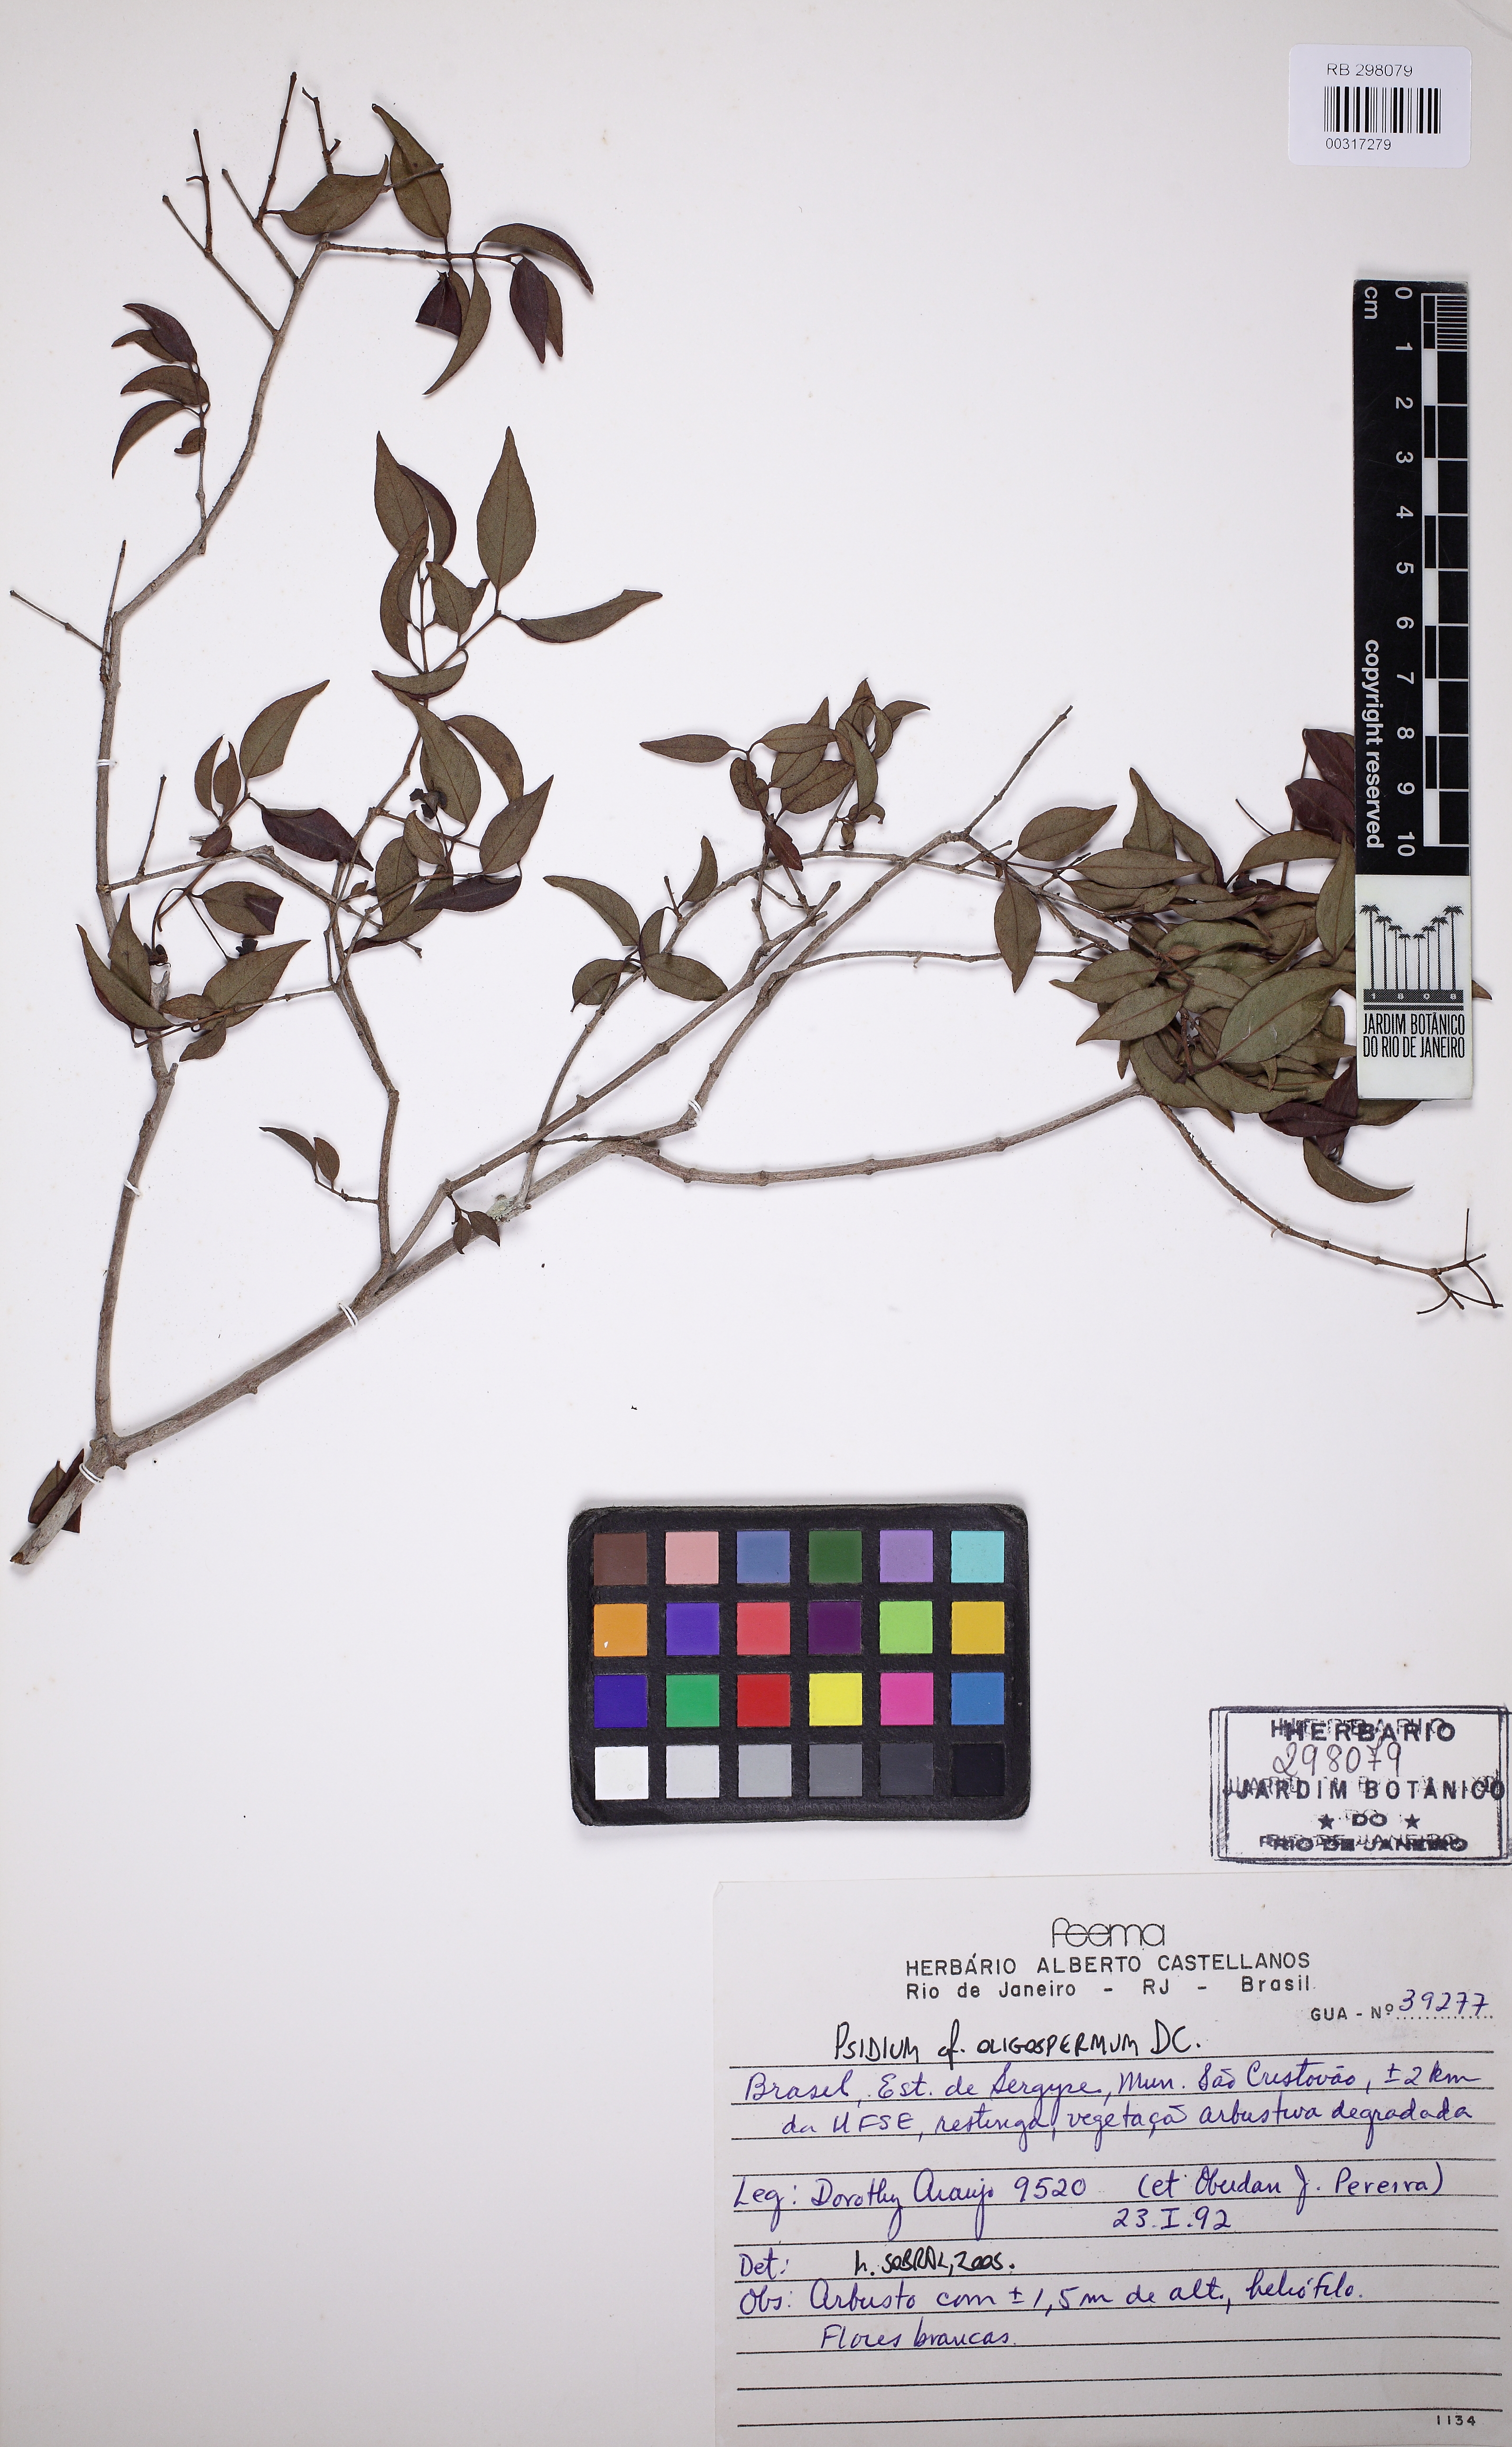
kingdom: Plantae
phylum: Tracheophyta
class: Magnoliopsida
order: Myrtales
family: Myrtaceae
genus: Psidium
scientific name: Psidium oligospermum
